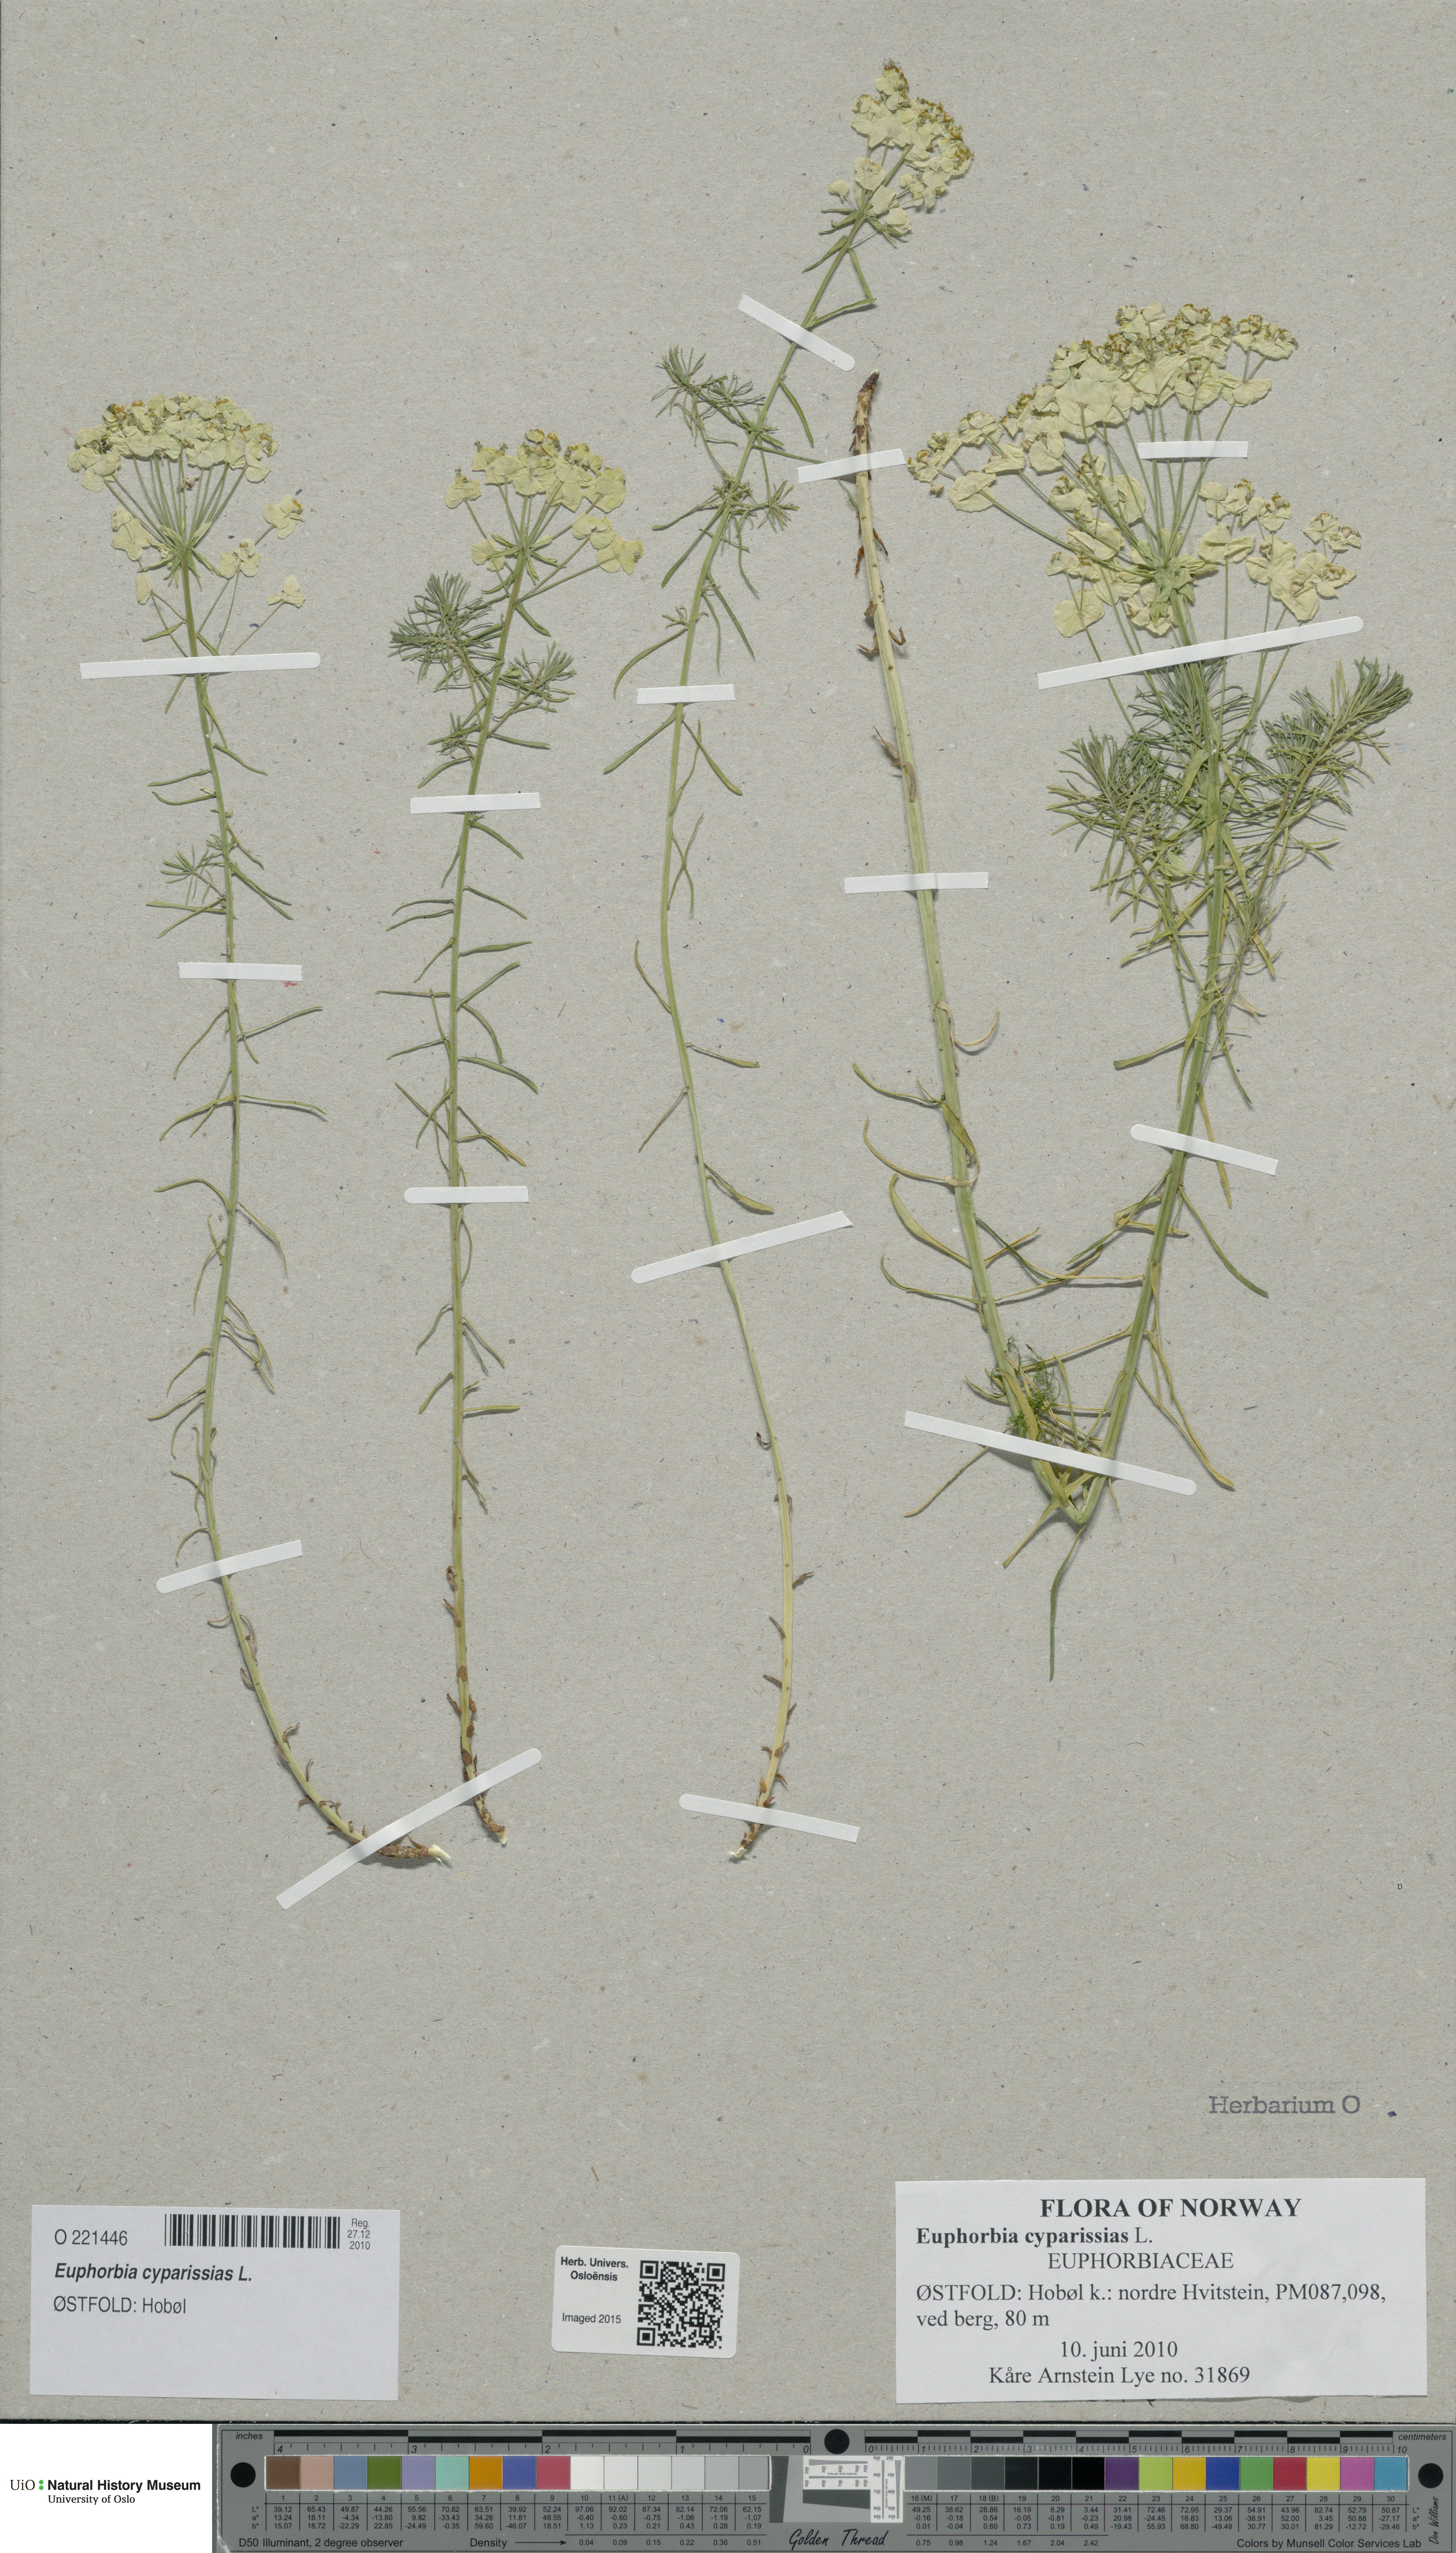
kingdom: Plantae
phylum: Tracheophyta
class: Magnoliopsida
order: Malpighiales
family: Euphorbiaceae
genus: Euphorbia
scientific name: Euphorbia cyparissias
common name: Cypress spurge
